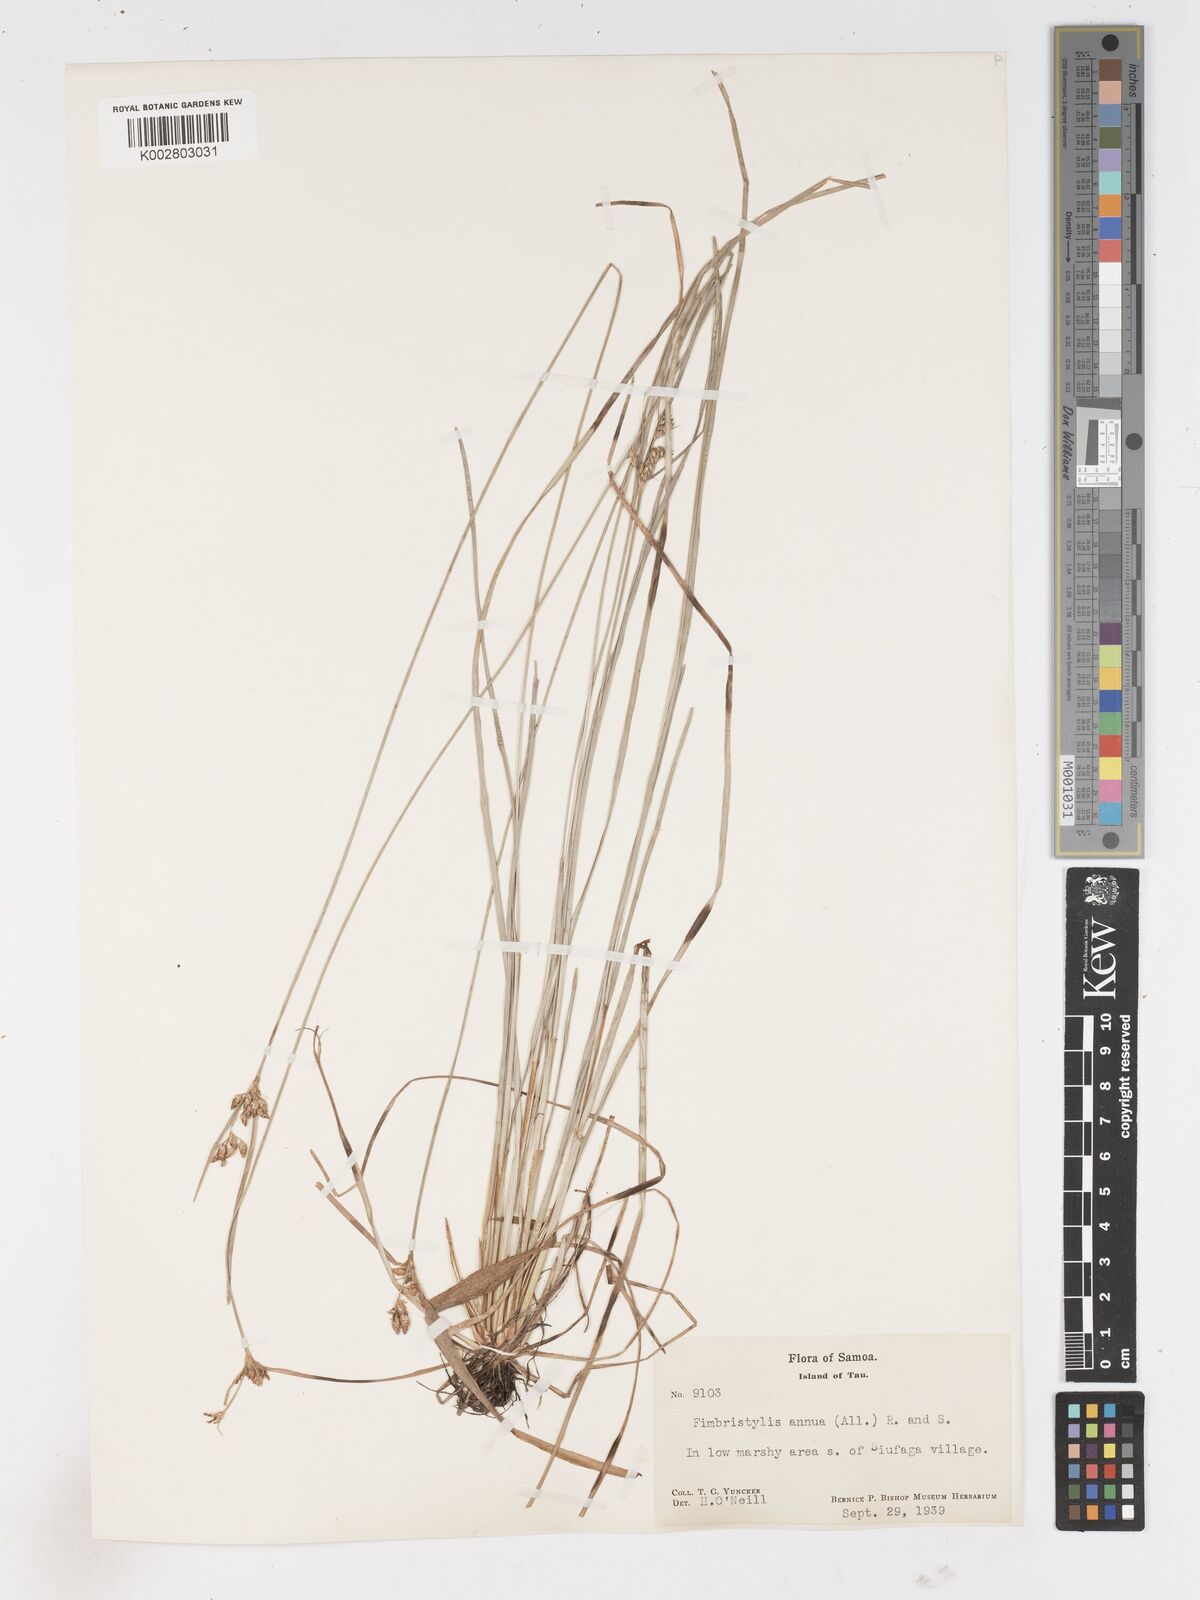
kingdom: Plantae
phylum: Tracheophyta
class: Liliopsida
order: Poales
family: Cyperaceae
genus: Fimbristylis
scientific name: Fimbristylis dichotoma
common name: Forked fimbry
